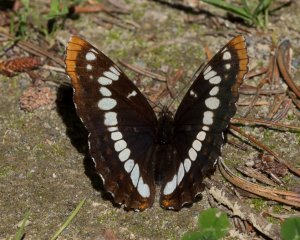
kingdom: Animalia
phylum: Arthropoda
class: Insecta
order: Lepidoptera
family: Nymphalidae
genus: Limenitis
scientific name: Limenitis lorquini
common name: Lorquin's Admiral
